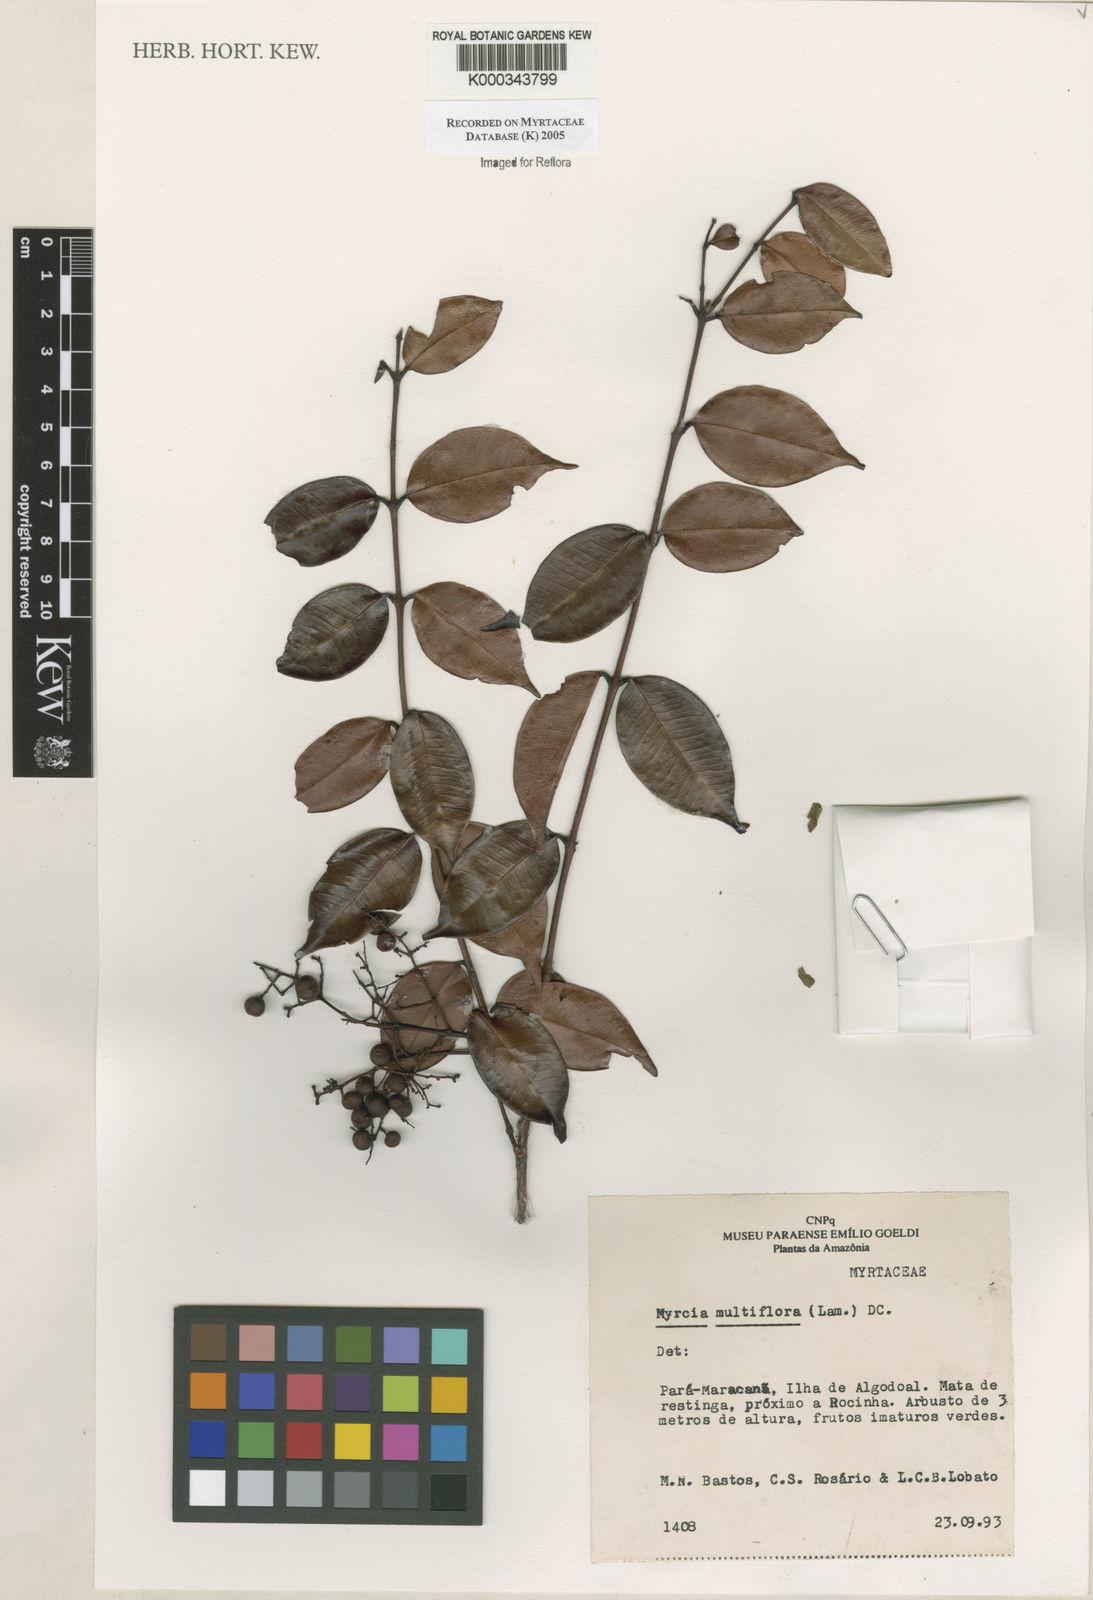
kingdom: Plantae
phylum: Tracheophyta
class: Magnoliopsida
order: Myrtales
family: Myrtaceae
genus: Myrcia
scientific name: Myrcia multiflora
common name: Pedra hume
